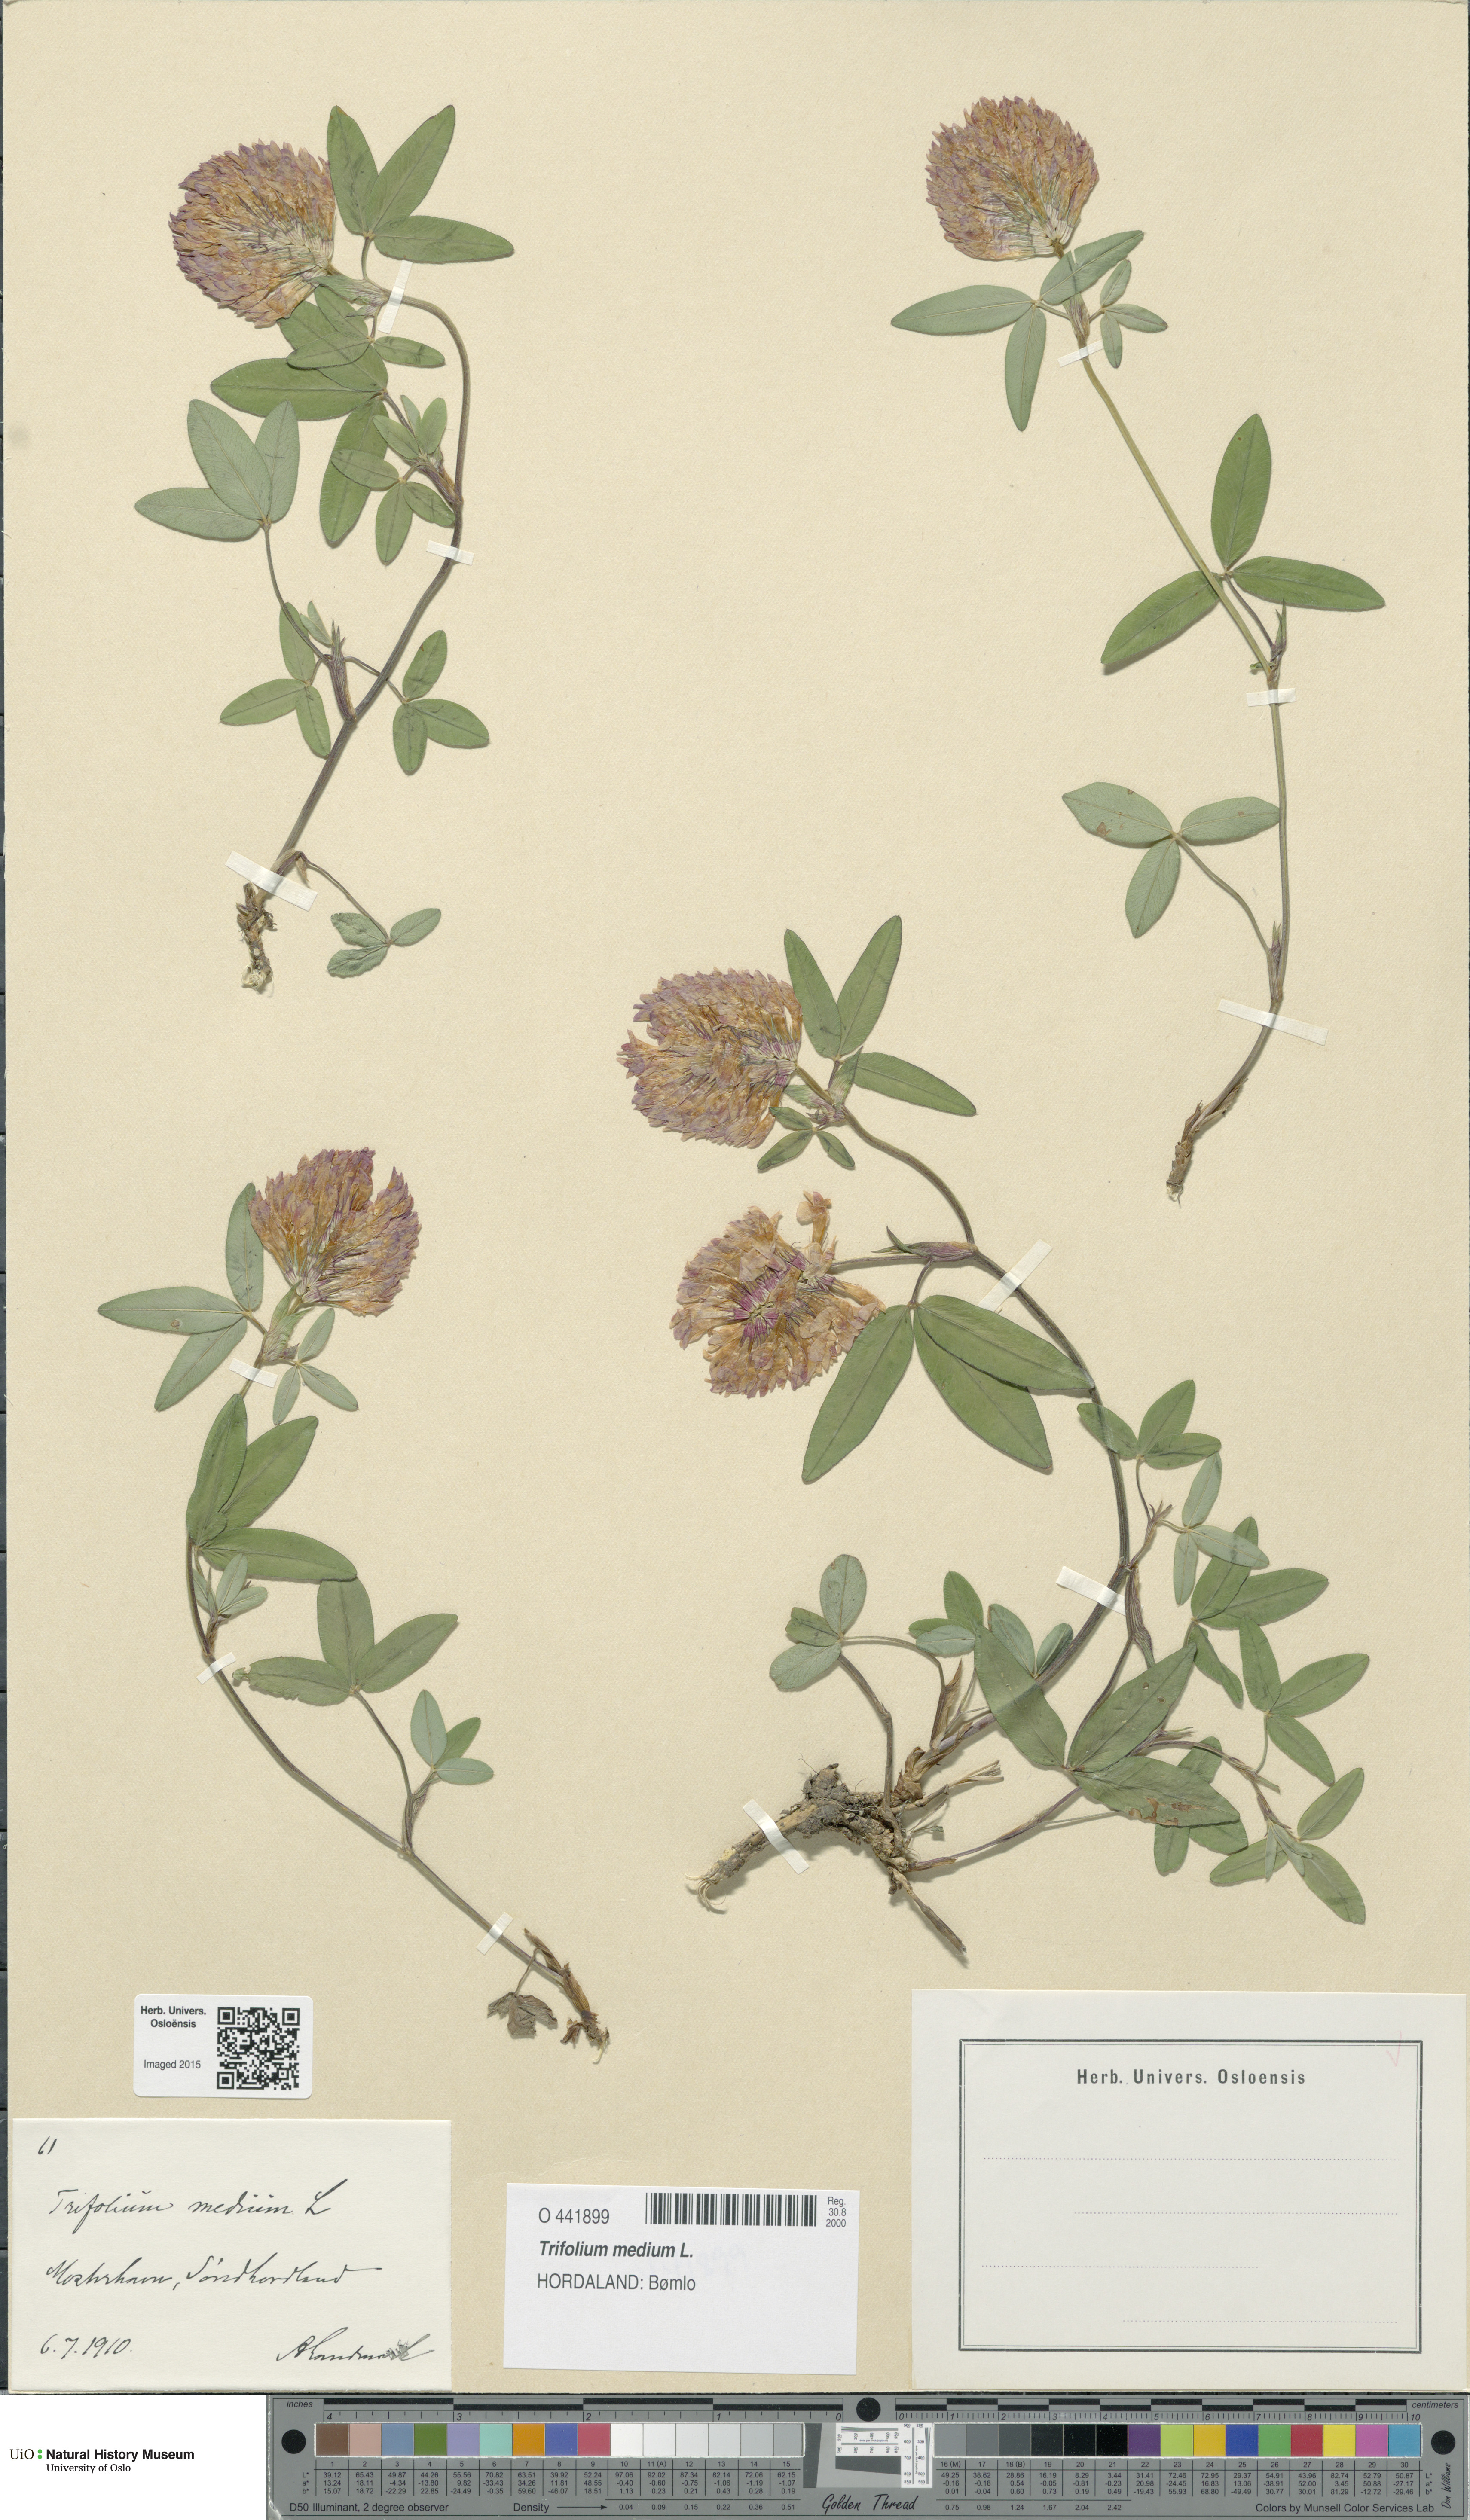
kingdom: Plantae
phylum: Tracheophyta
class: Magnoliopsida
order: Fabales
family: Fabaceae
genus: Trifolium
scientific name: Trifolium medium
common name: Zigzag clover
